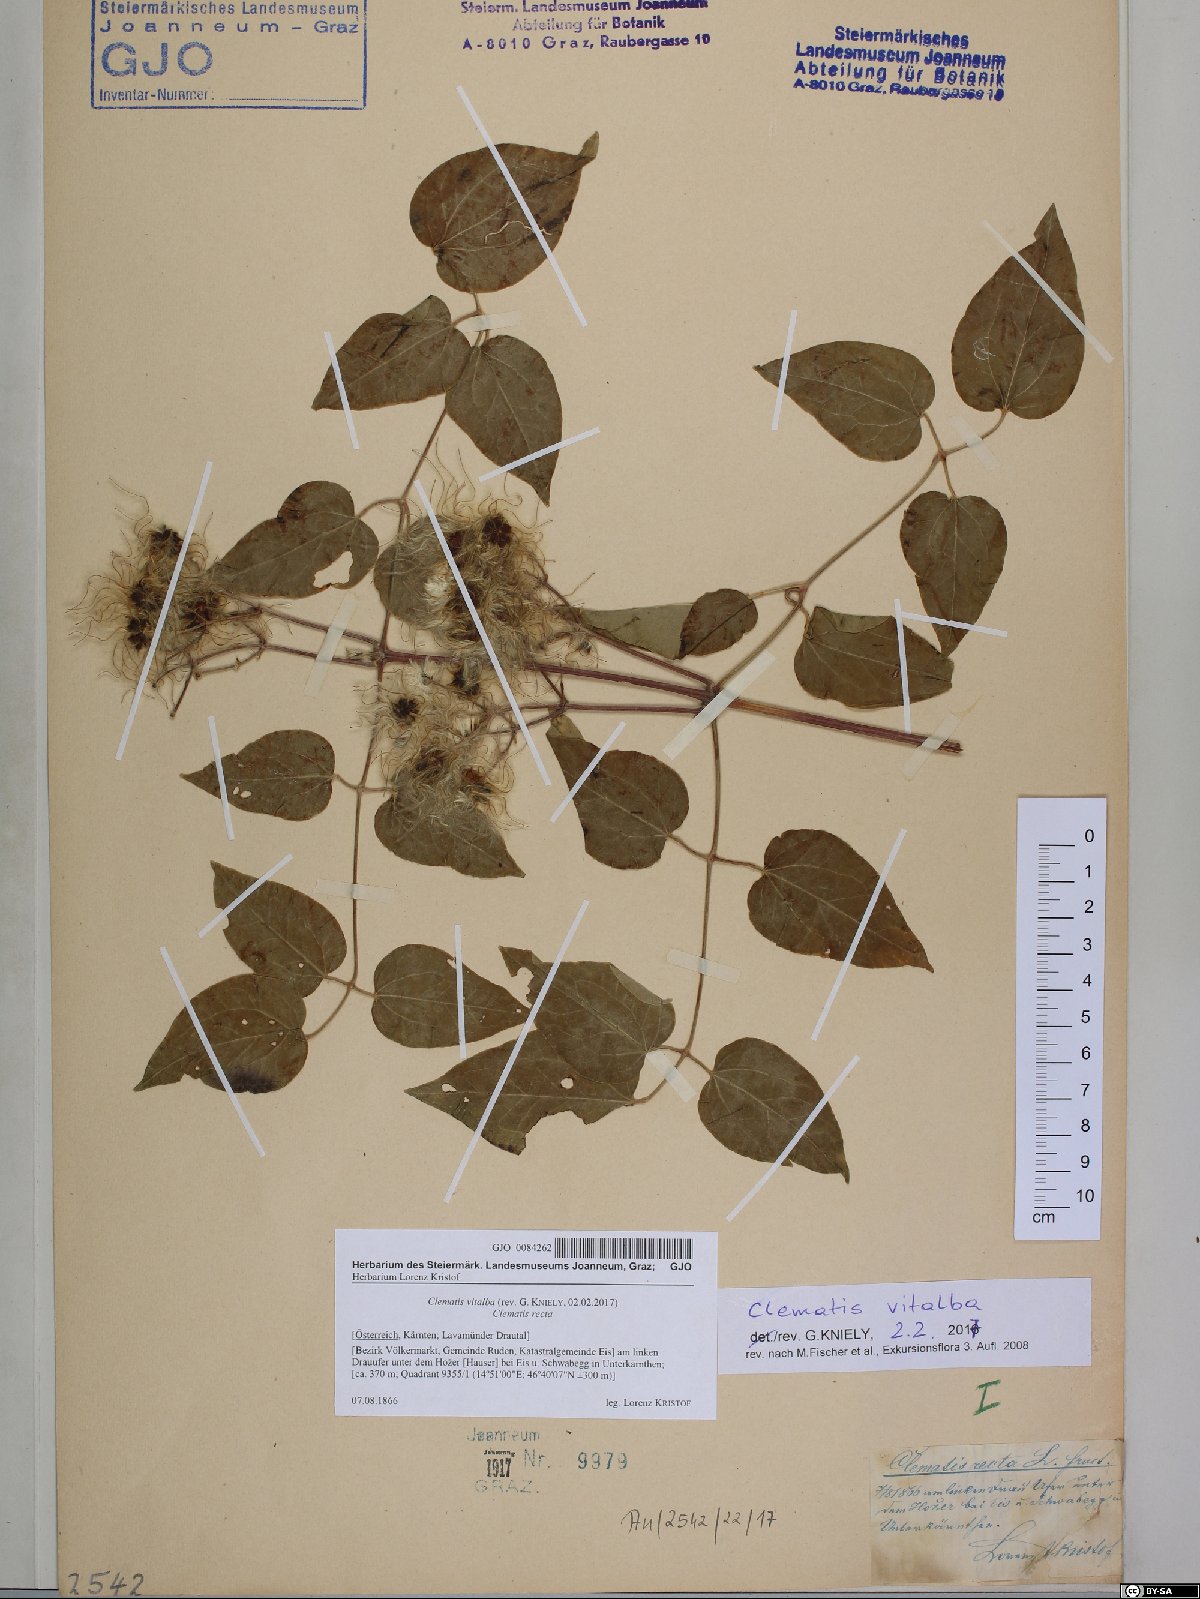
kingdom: Plantae
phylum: Tracheophyta
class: Magnoliopsida
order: Ranunculales
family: Ranunculaceae
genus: Clematis
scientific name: Clematis vitalba
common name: Evergreen clematis
